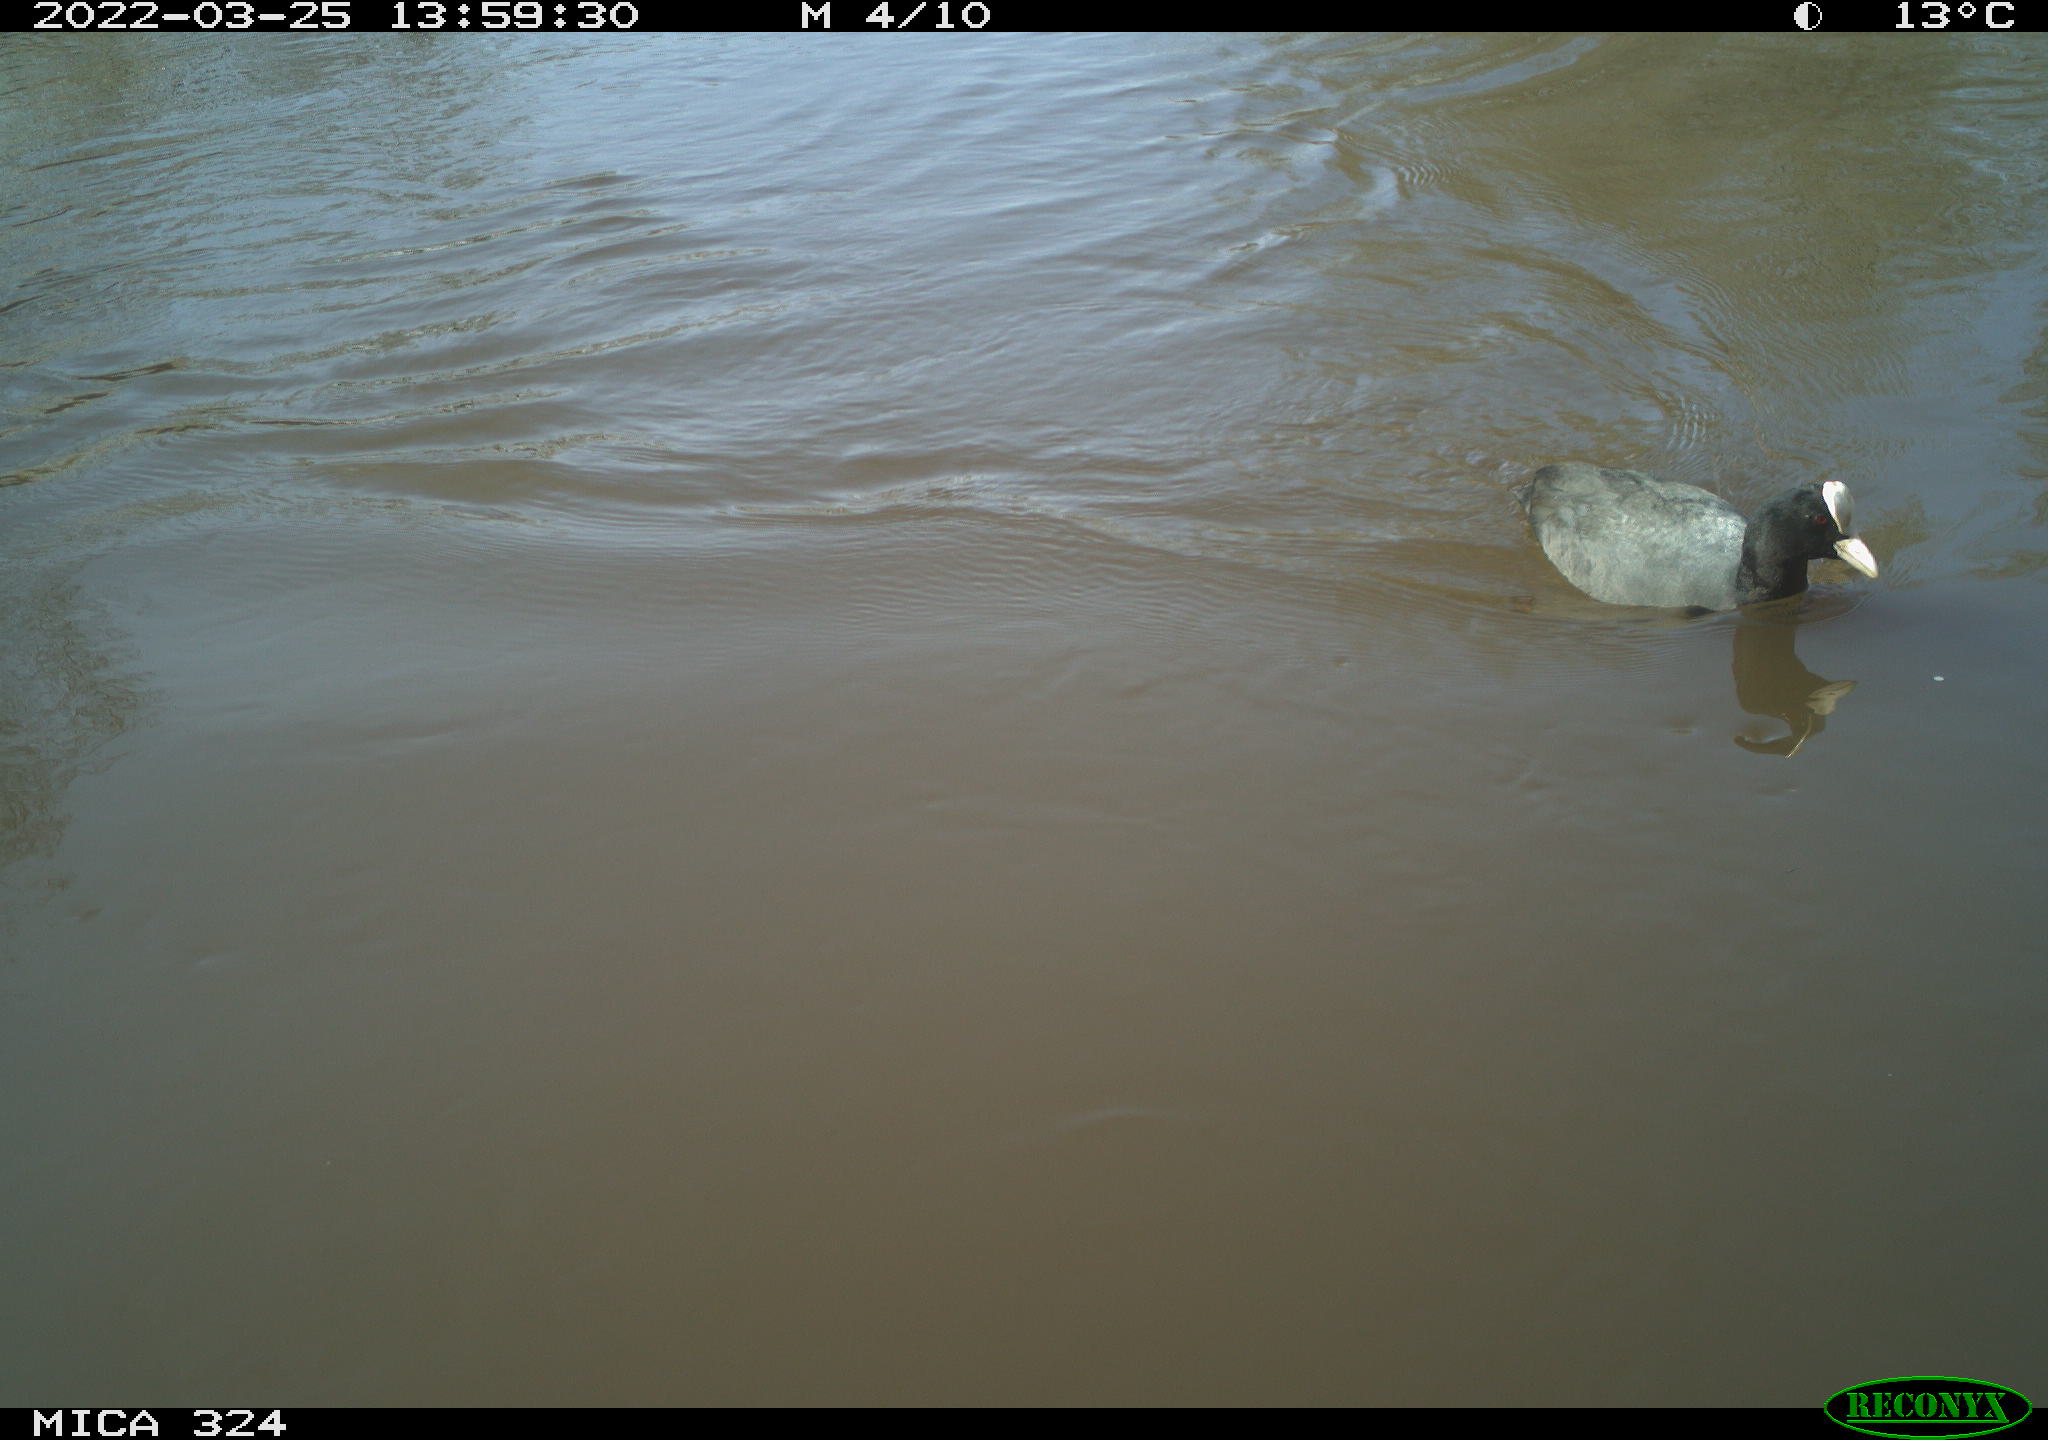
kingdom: Animalia
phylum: Chordata
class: Aves
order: Gruiformes
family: Rallidae
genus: Fulica
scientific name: Fulica atra
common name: Eurasian coot
